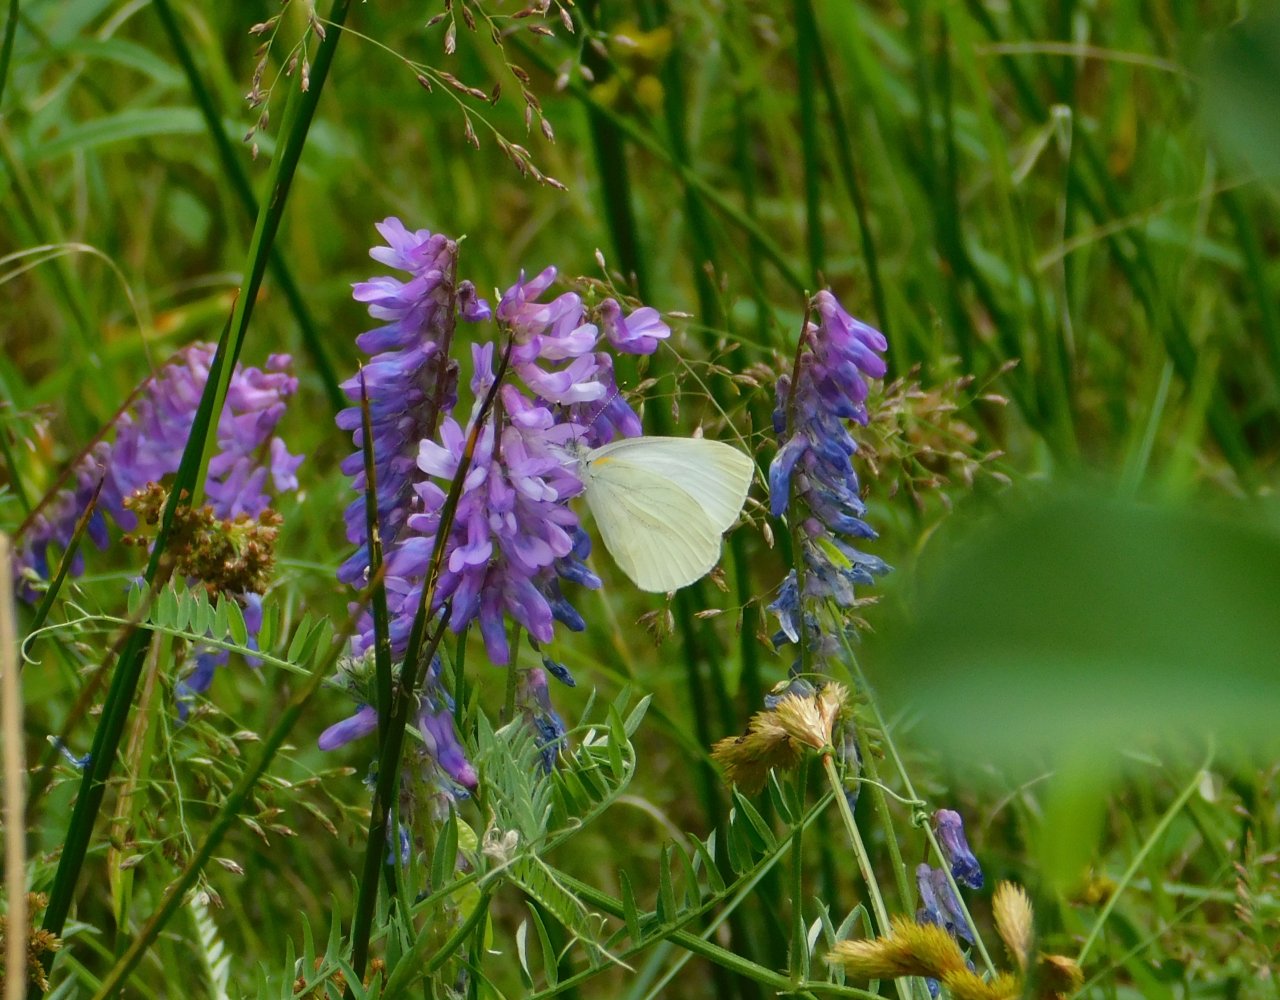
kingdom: Animalia
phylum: Arthropoda
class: Insecta
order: Lepidoptera
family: Pieridae
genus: Pieris
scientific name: Pieris oleracea
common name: Mustard White
